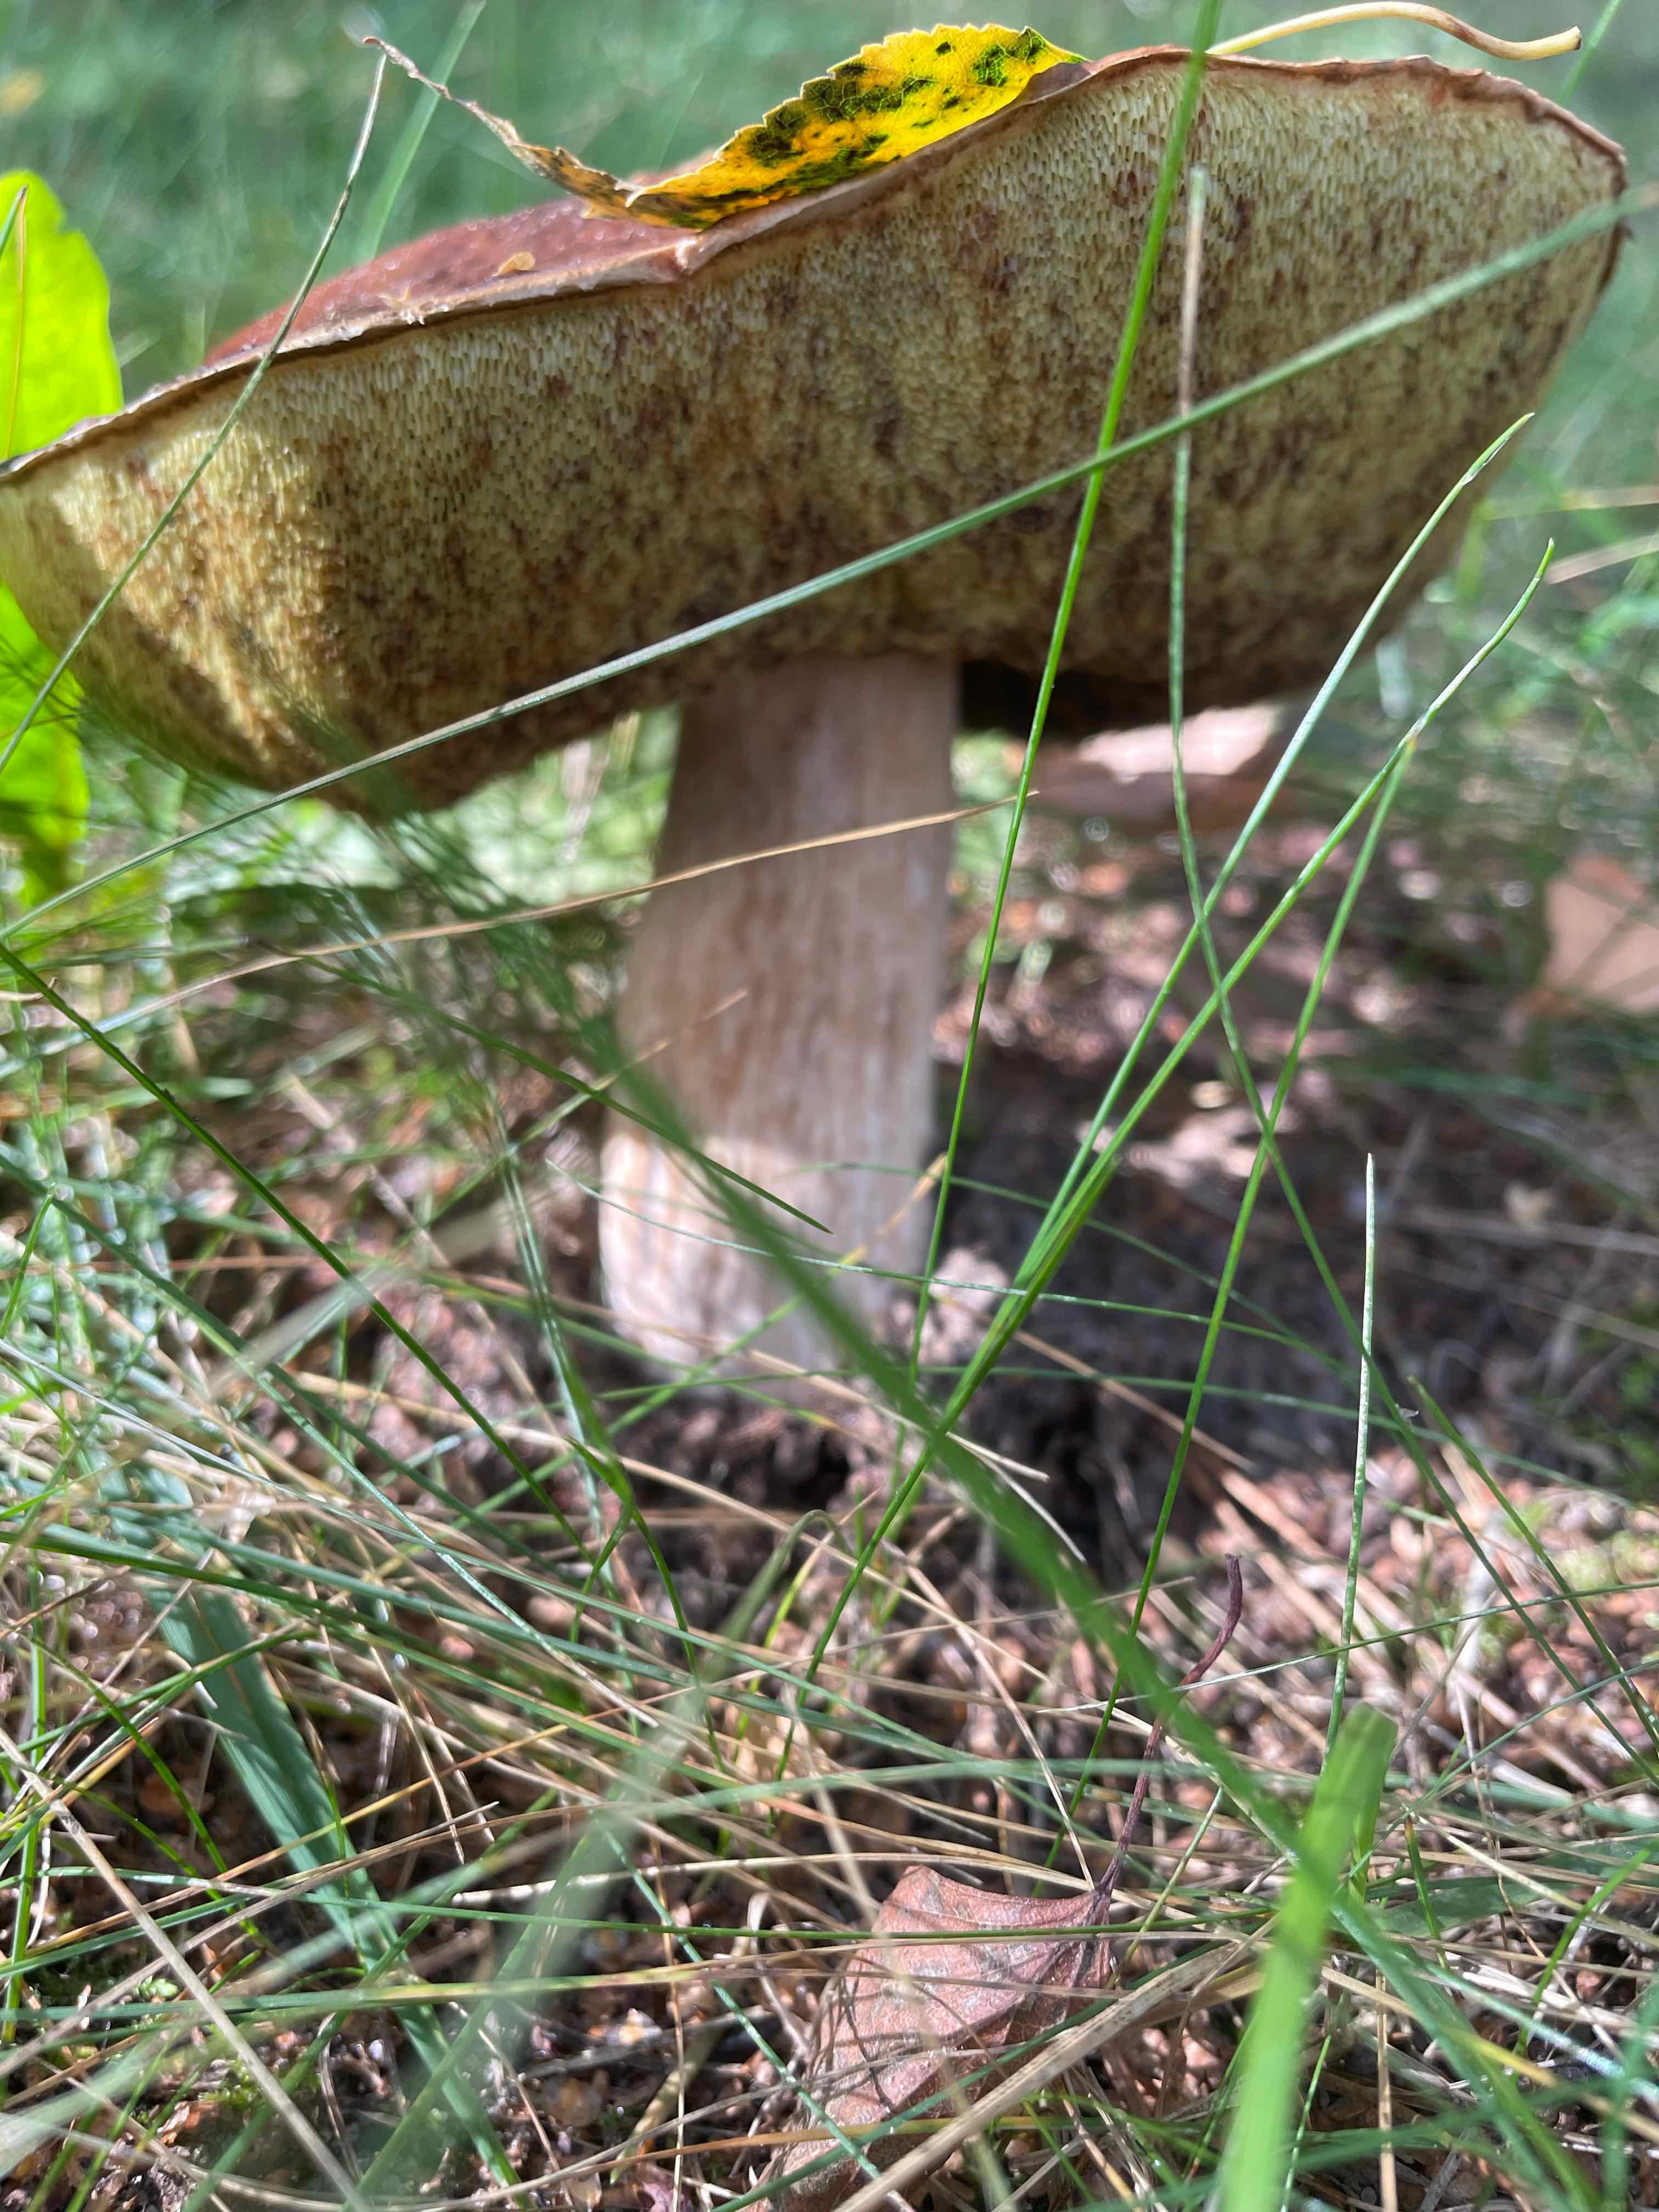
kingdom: Fungi
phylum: Basidiomycota
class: Agaricomycetes
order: Boletales
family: Boletaceae
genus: Boletus
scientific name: Boletus edulis
